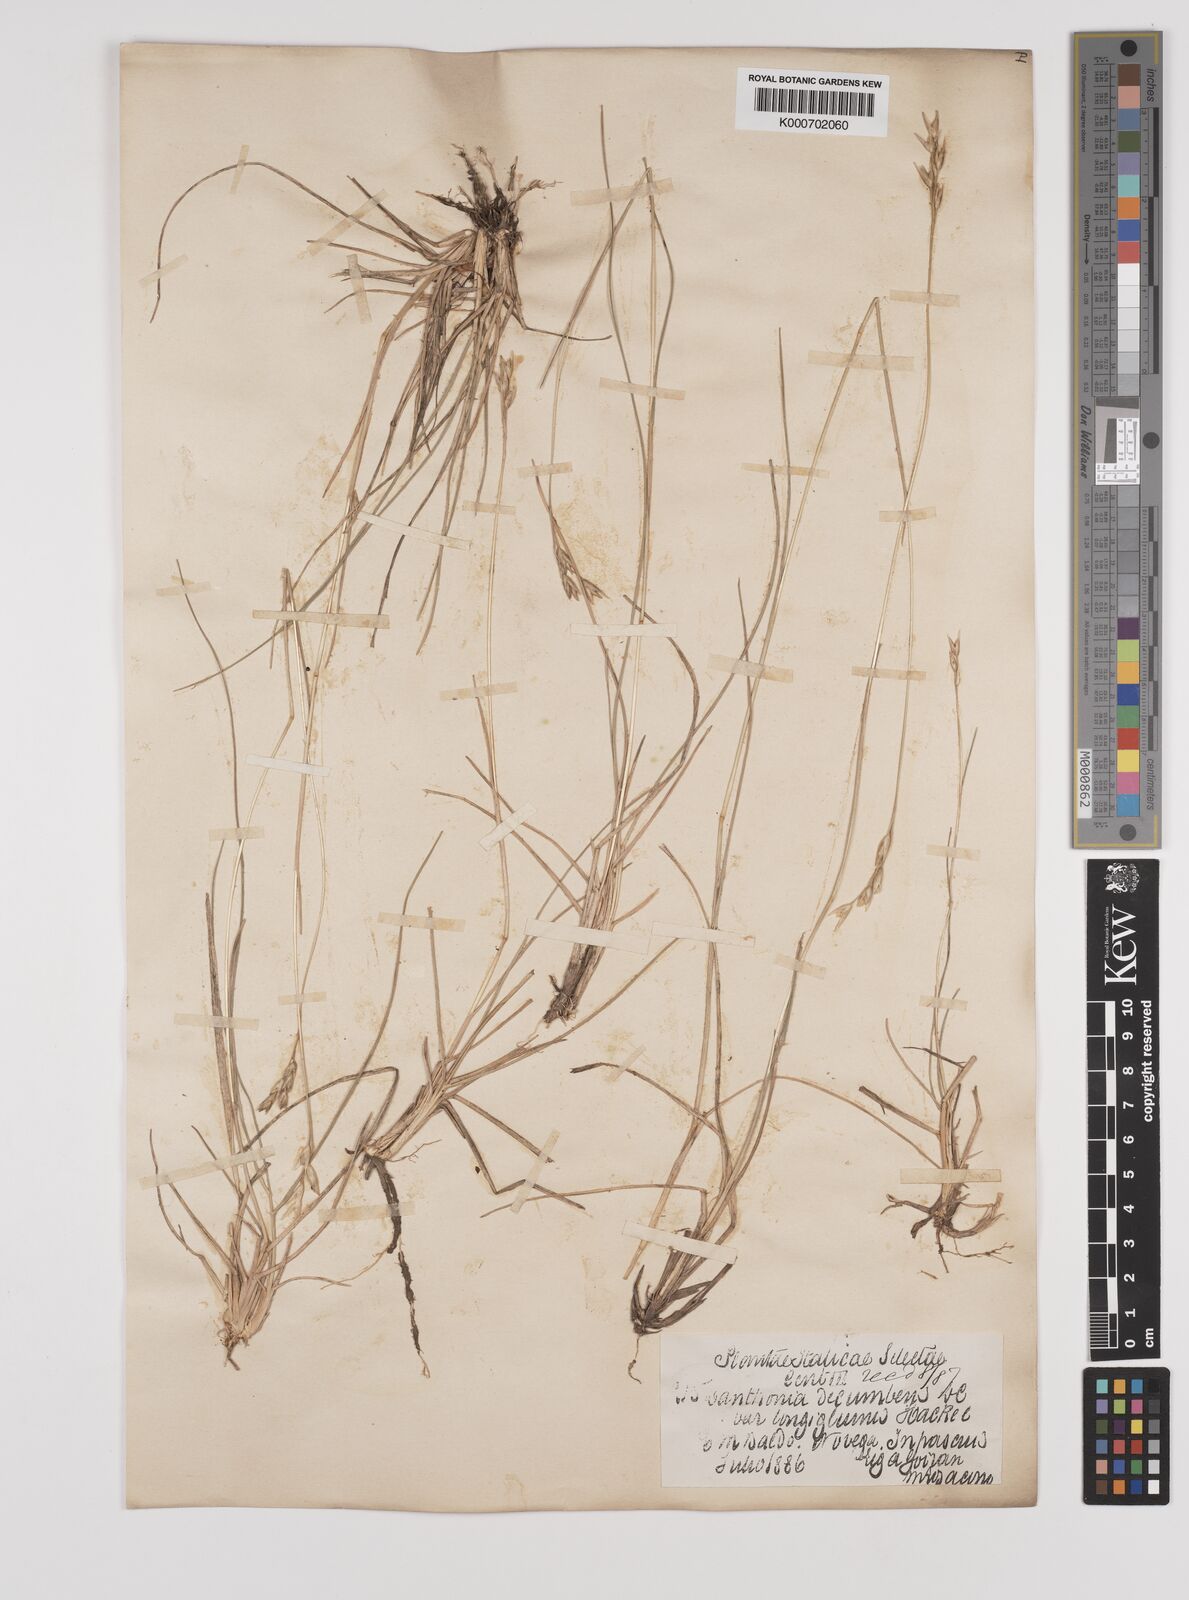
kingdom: Plantae
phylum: Tracheophyta
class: Liliopsida
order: Poales
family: Poaceae
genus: Danthonia
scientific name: Danthonia decumbens
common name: Common heathgrass
